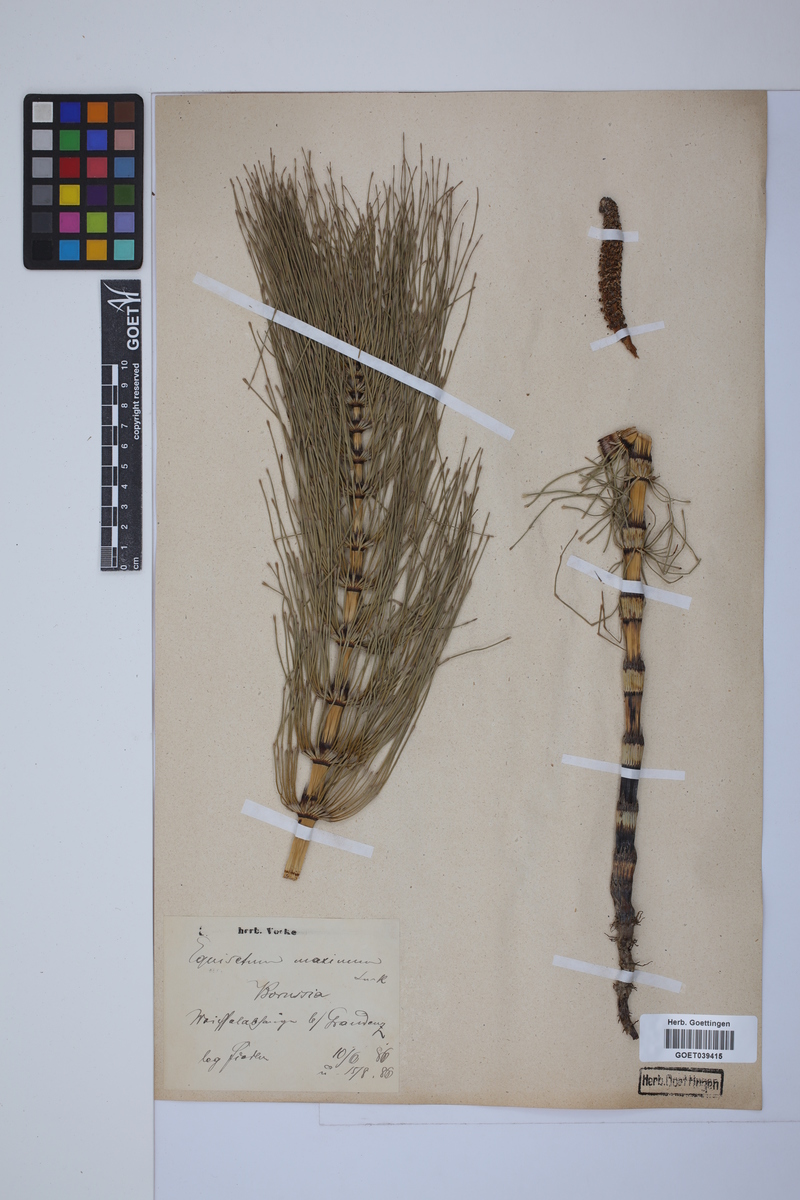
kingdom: Plantae
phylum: Tracheophyta
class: Polypodiopsida
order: Equisetales
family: Equisetaceae
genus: Equisetum
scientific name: Equisetum telmateia
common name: Great horsetail
